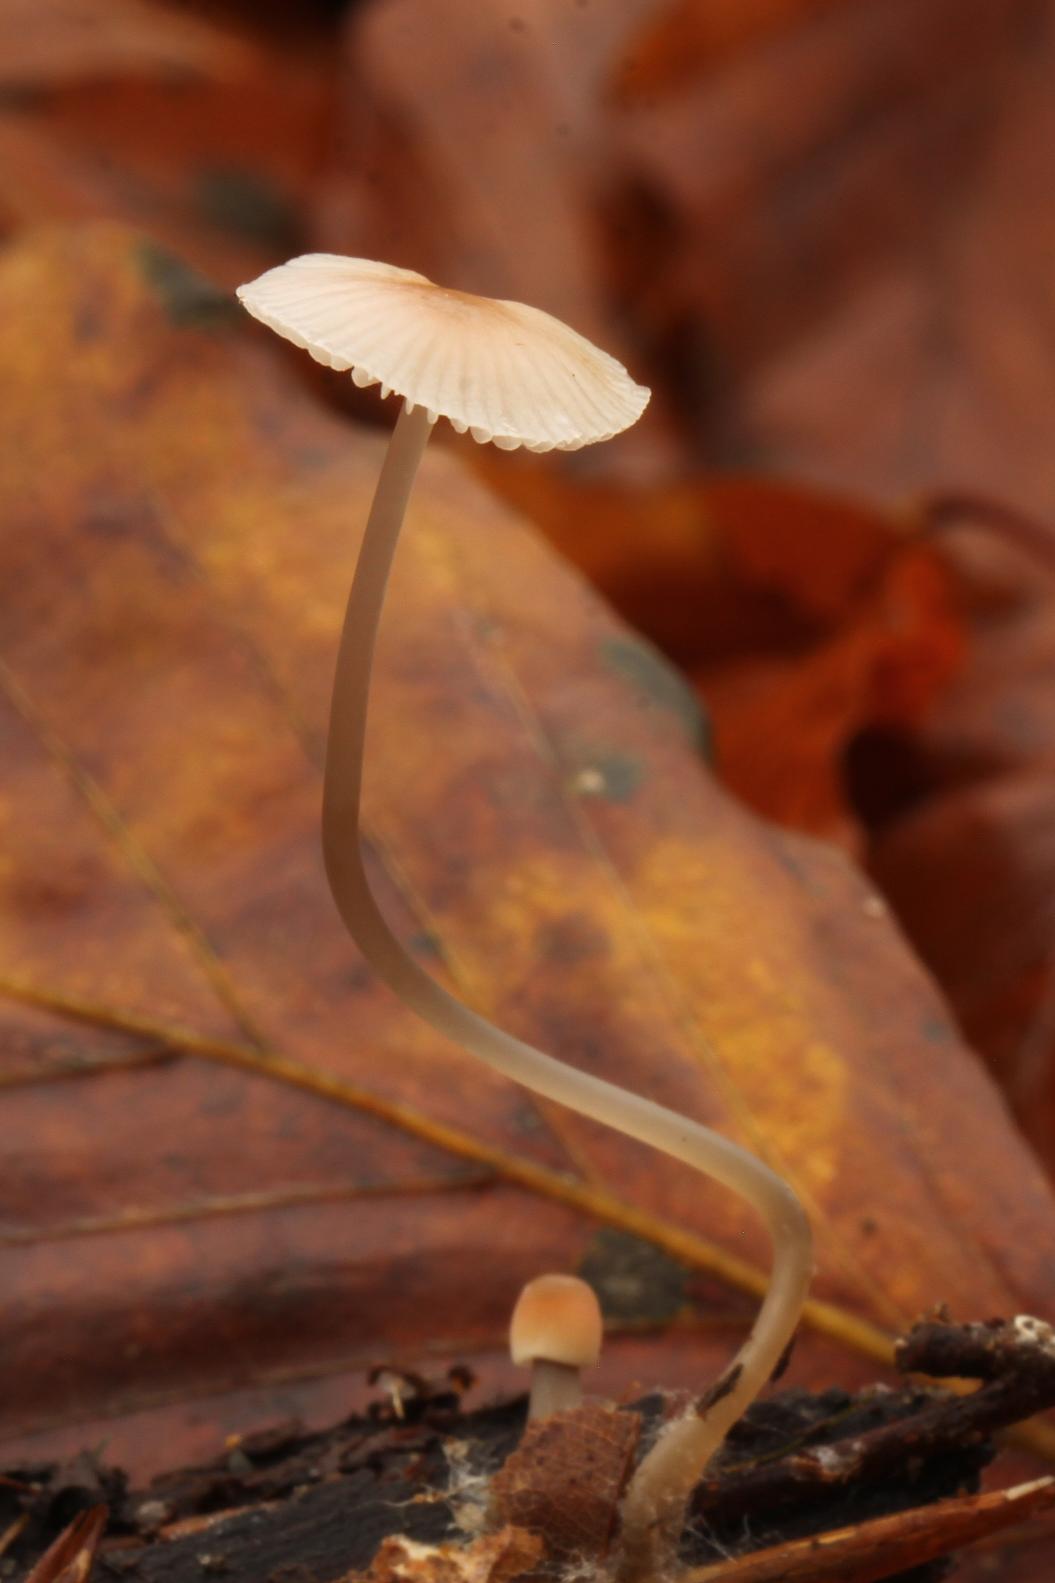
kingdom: Fungi
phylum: Basidiomycota
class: Agaricomycetes
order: Agaricales
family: Mycenaceae
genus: Mycena
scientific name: Mycena
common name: huesvamp
